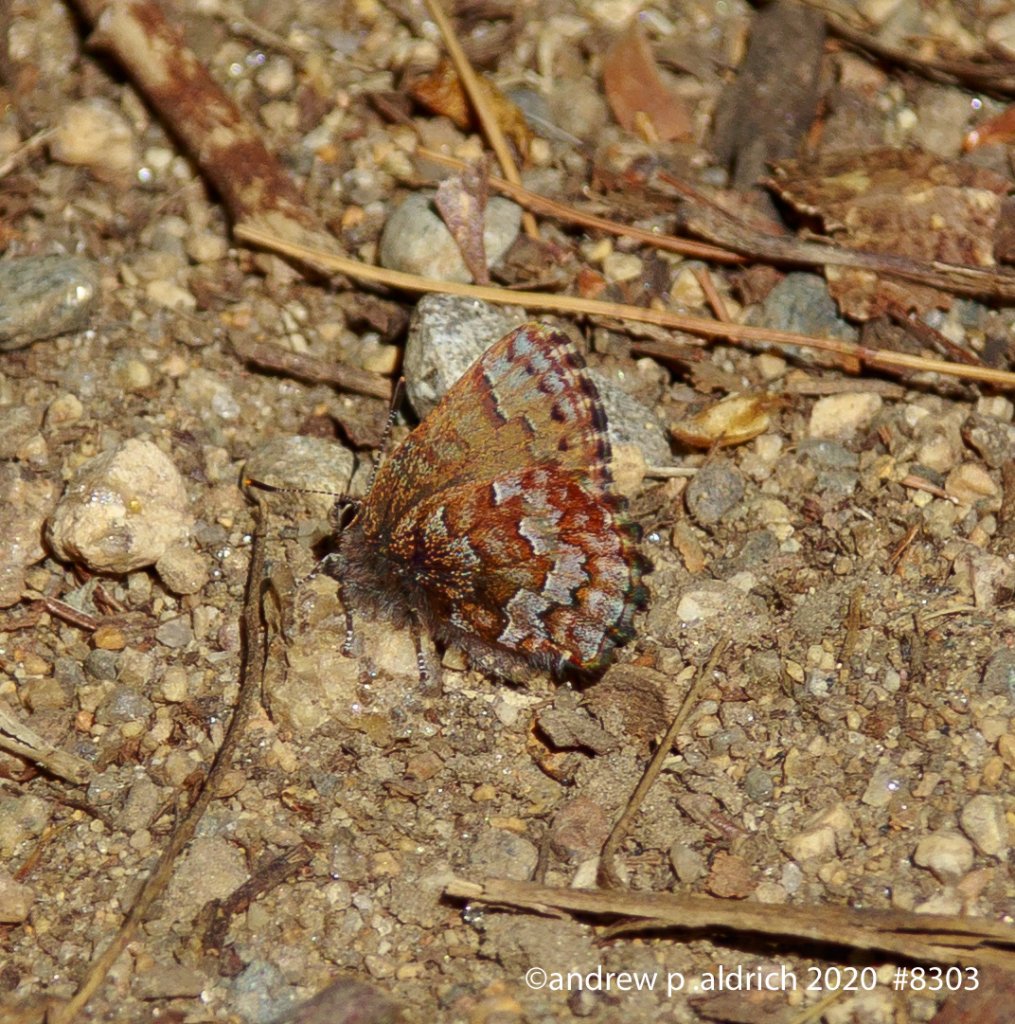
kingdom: Animalia
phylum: Arthropoda
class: Insecta
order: Lepidoptera
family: Lycaenidae
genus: Incisalia
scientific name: Incisalia niphon
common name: Eastern Pine Elfin
